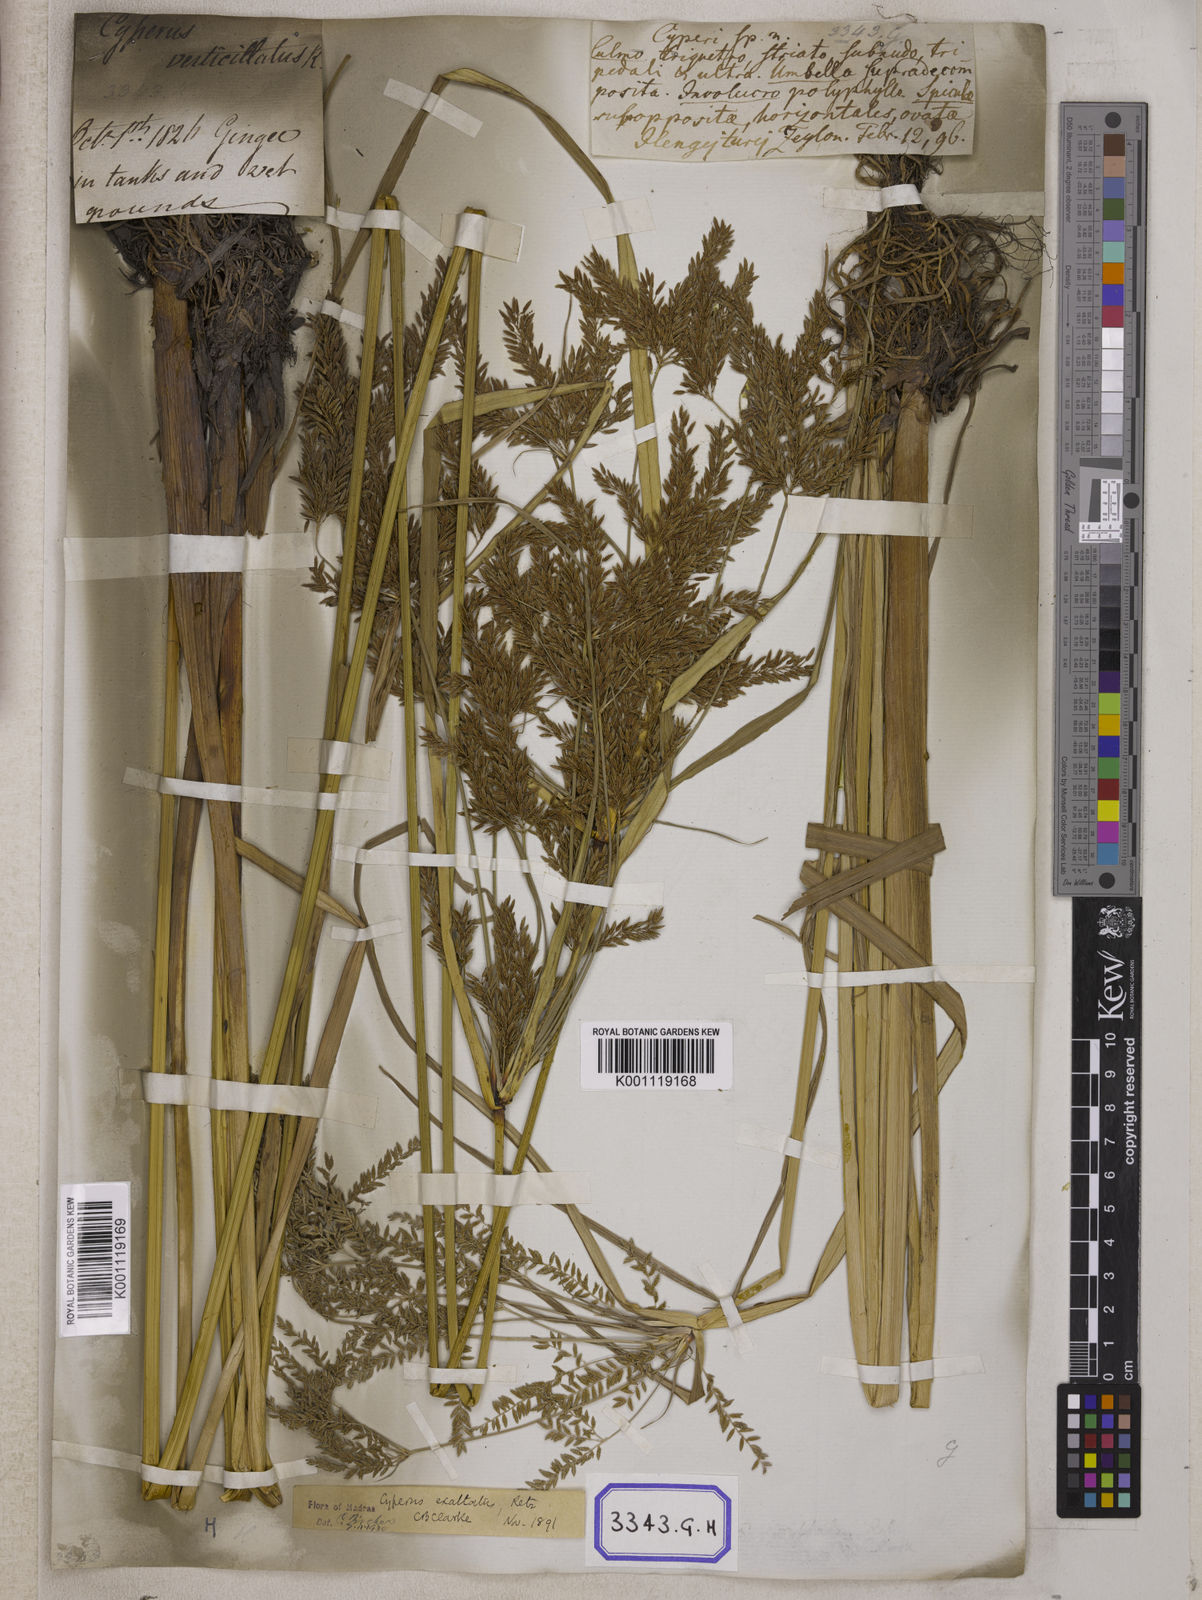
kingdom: Plantae
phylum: Tracheophyta
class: Liliopsida
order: Poales
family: Cyperaceae
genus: Cyperus
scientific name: Cyperus
